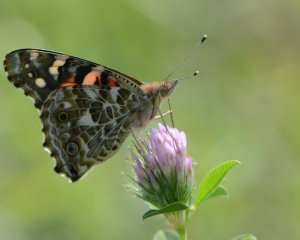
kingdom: Animalia
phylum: Arthropoda
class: Insecta
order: Lepidoptera
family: Nymphalidae
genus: Vanessa
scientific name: Vanessa cardui
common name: Painted Lady
